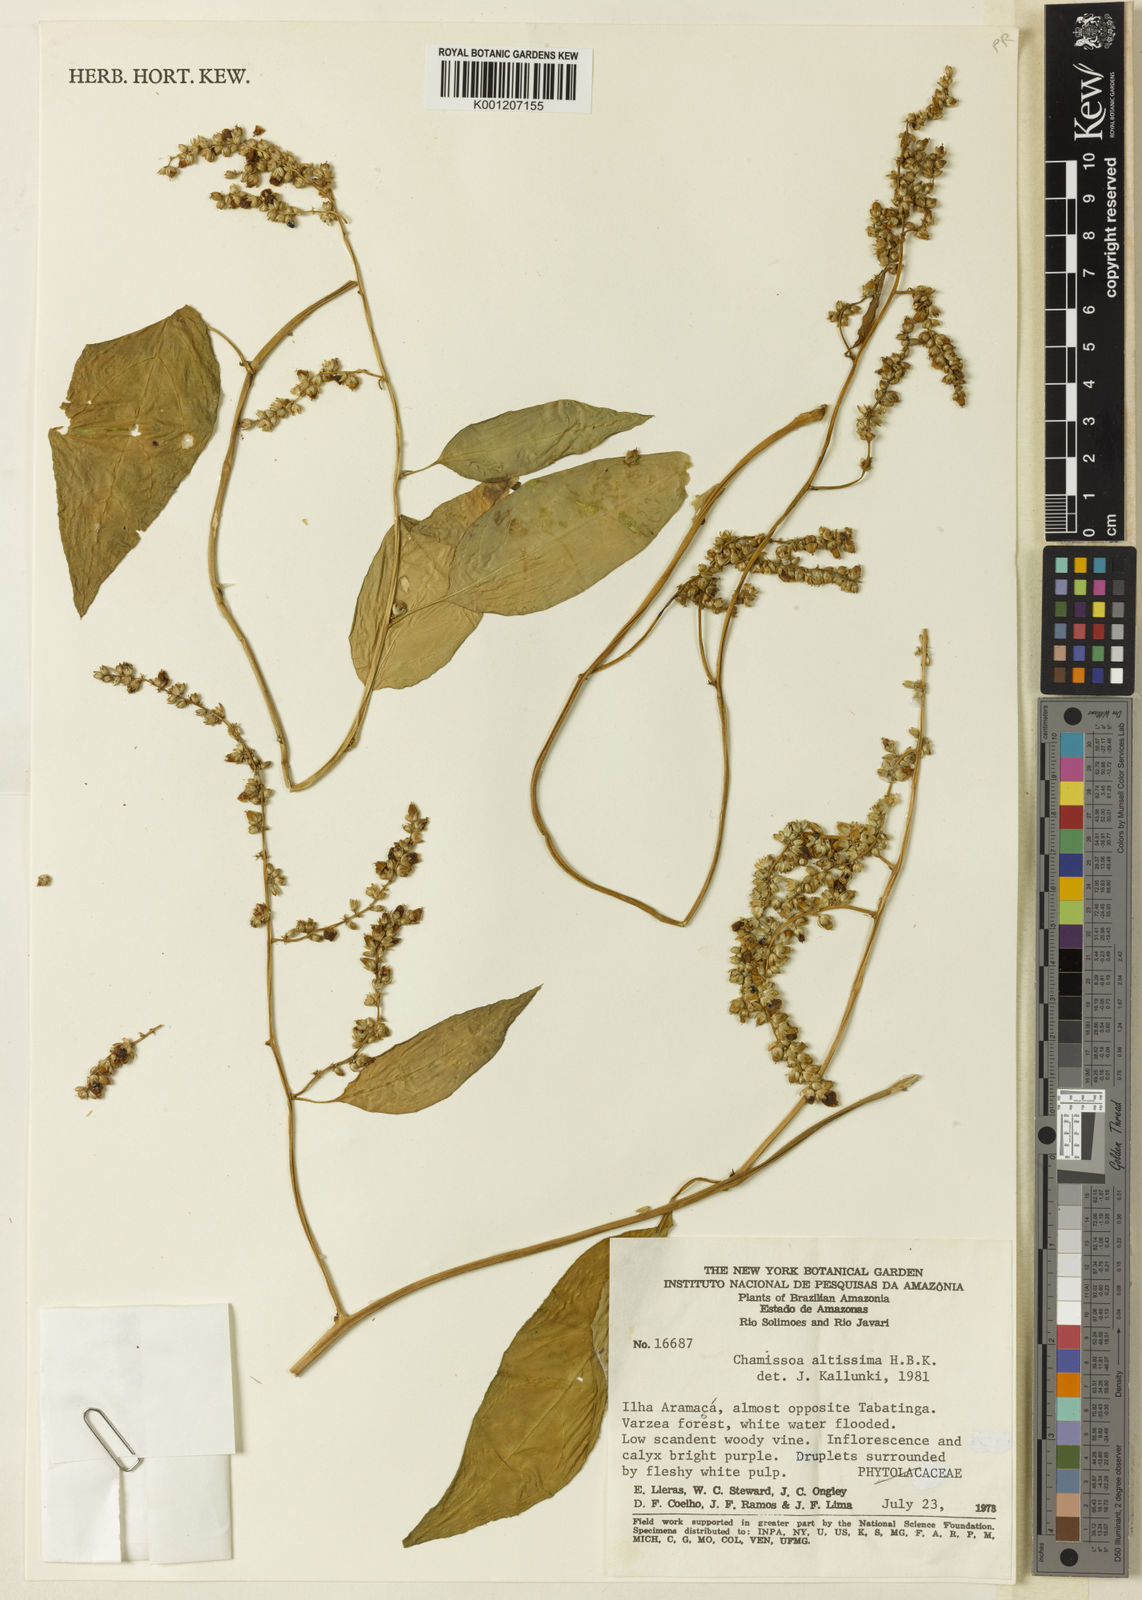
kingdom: Plantae
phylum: Tracheophyta
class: Magnoliopsida
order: Caryophyllales
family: Amaranthaceae
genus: Chamissoa
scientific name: Chamissoa altissima
